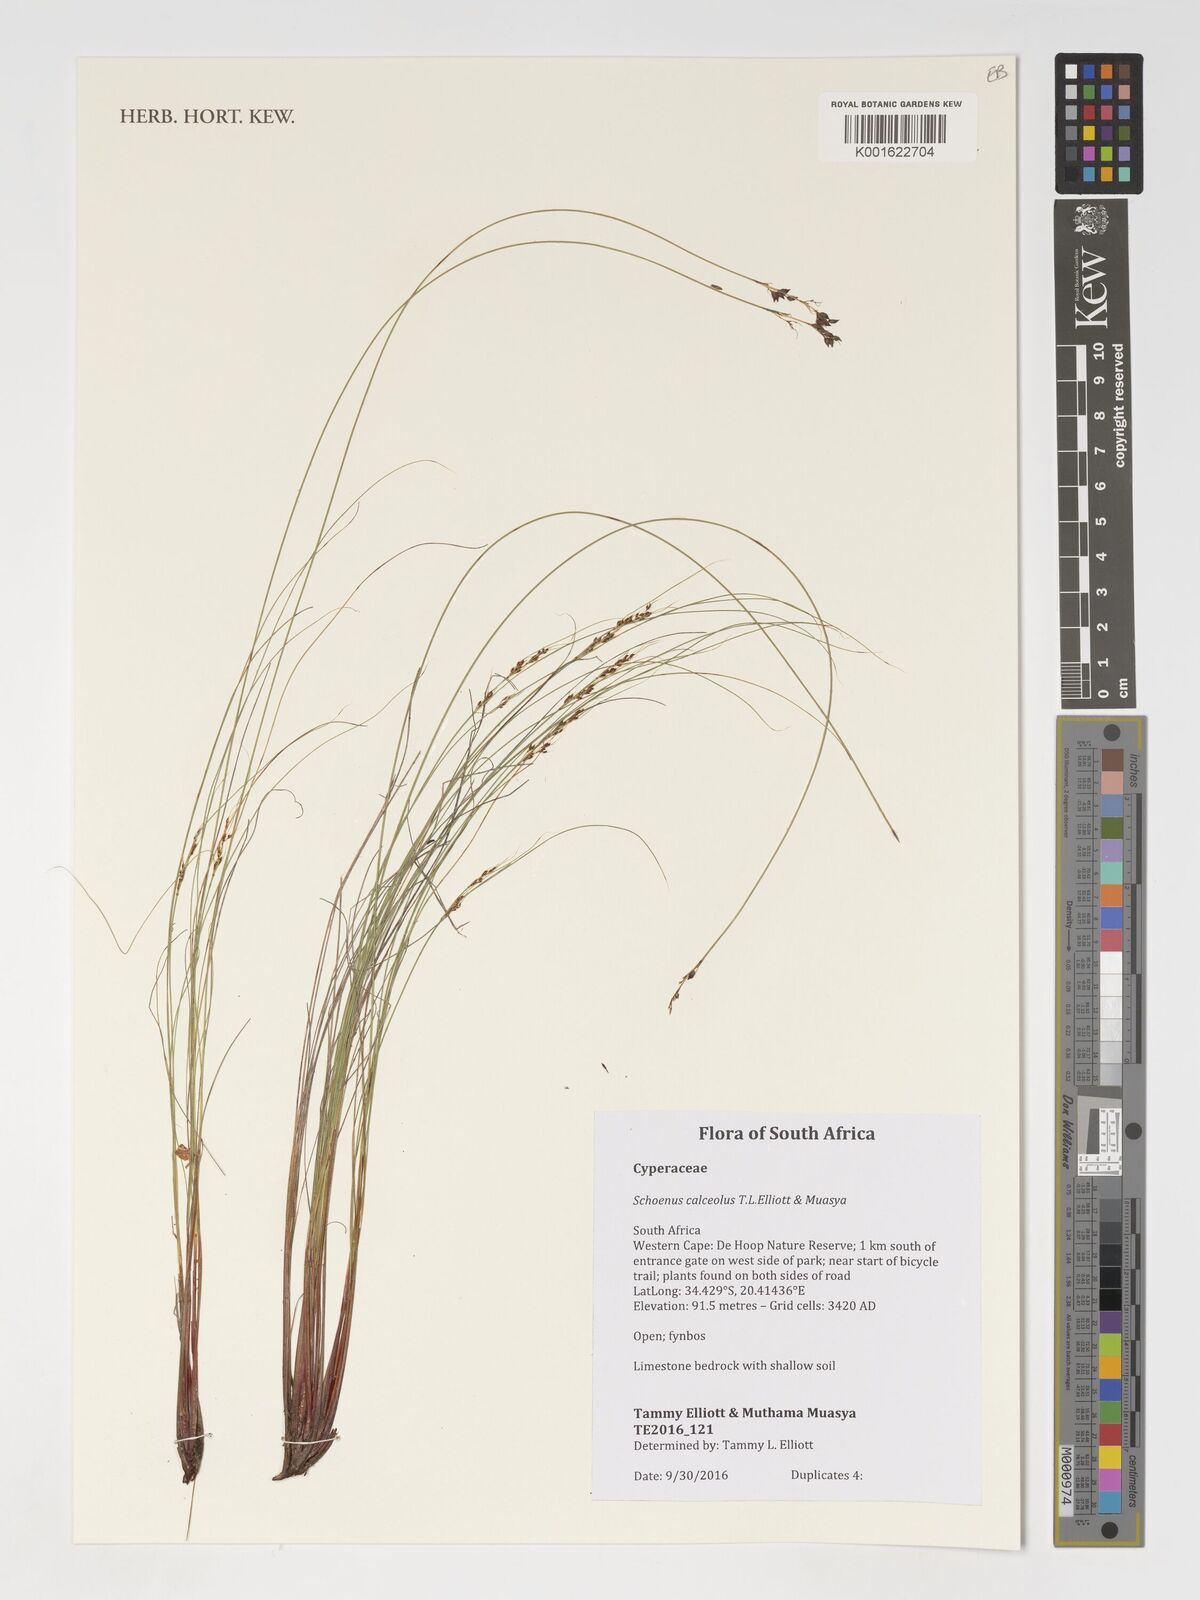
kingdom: Plantae
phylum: Tracheophyta
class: Liliopsida
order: Poales
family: Cyperaceae
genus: Schoenus
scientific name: Schoenus calceolus
